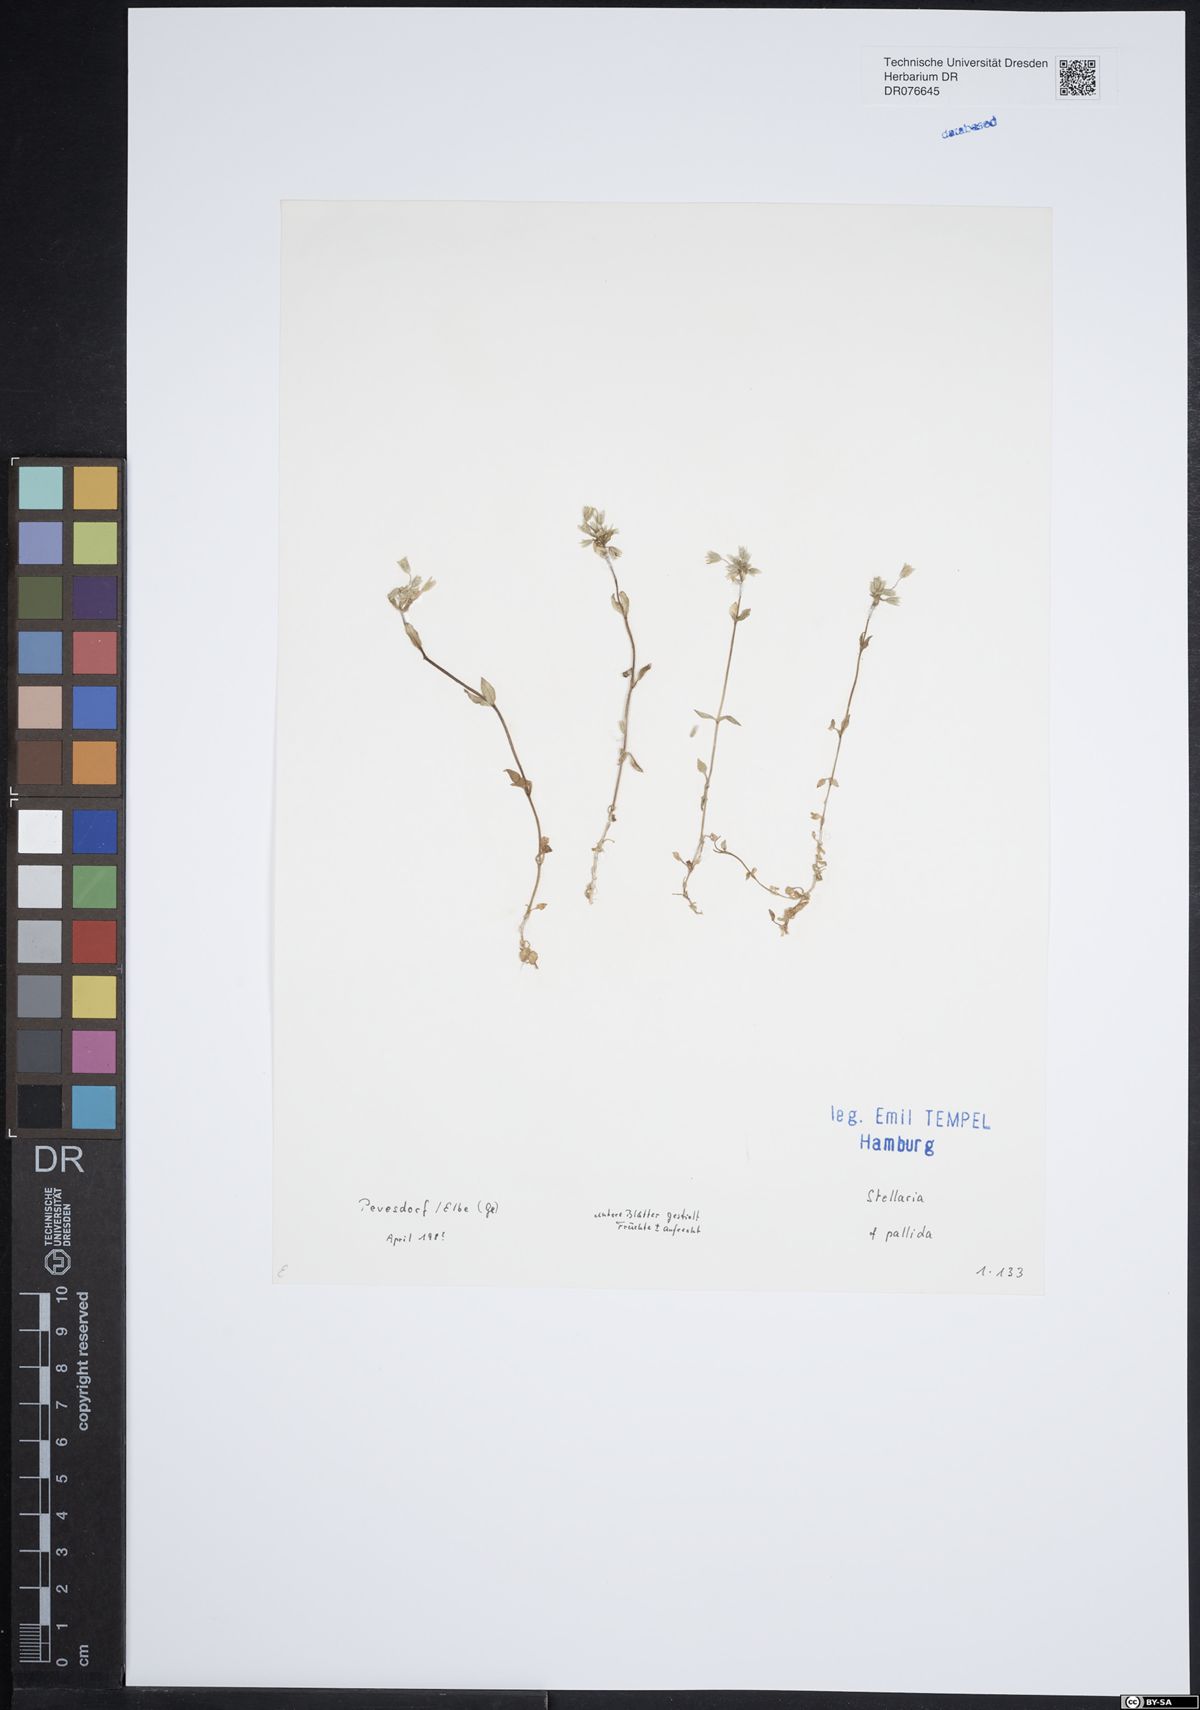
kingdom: Plantae
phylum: Tracheophyta
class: Magnoliopsida
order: Caryophyllales
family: Caryophyllaceae
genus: Stellaria
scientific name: Stellaria apetala
